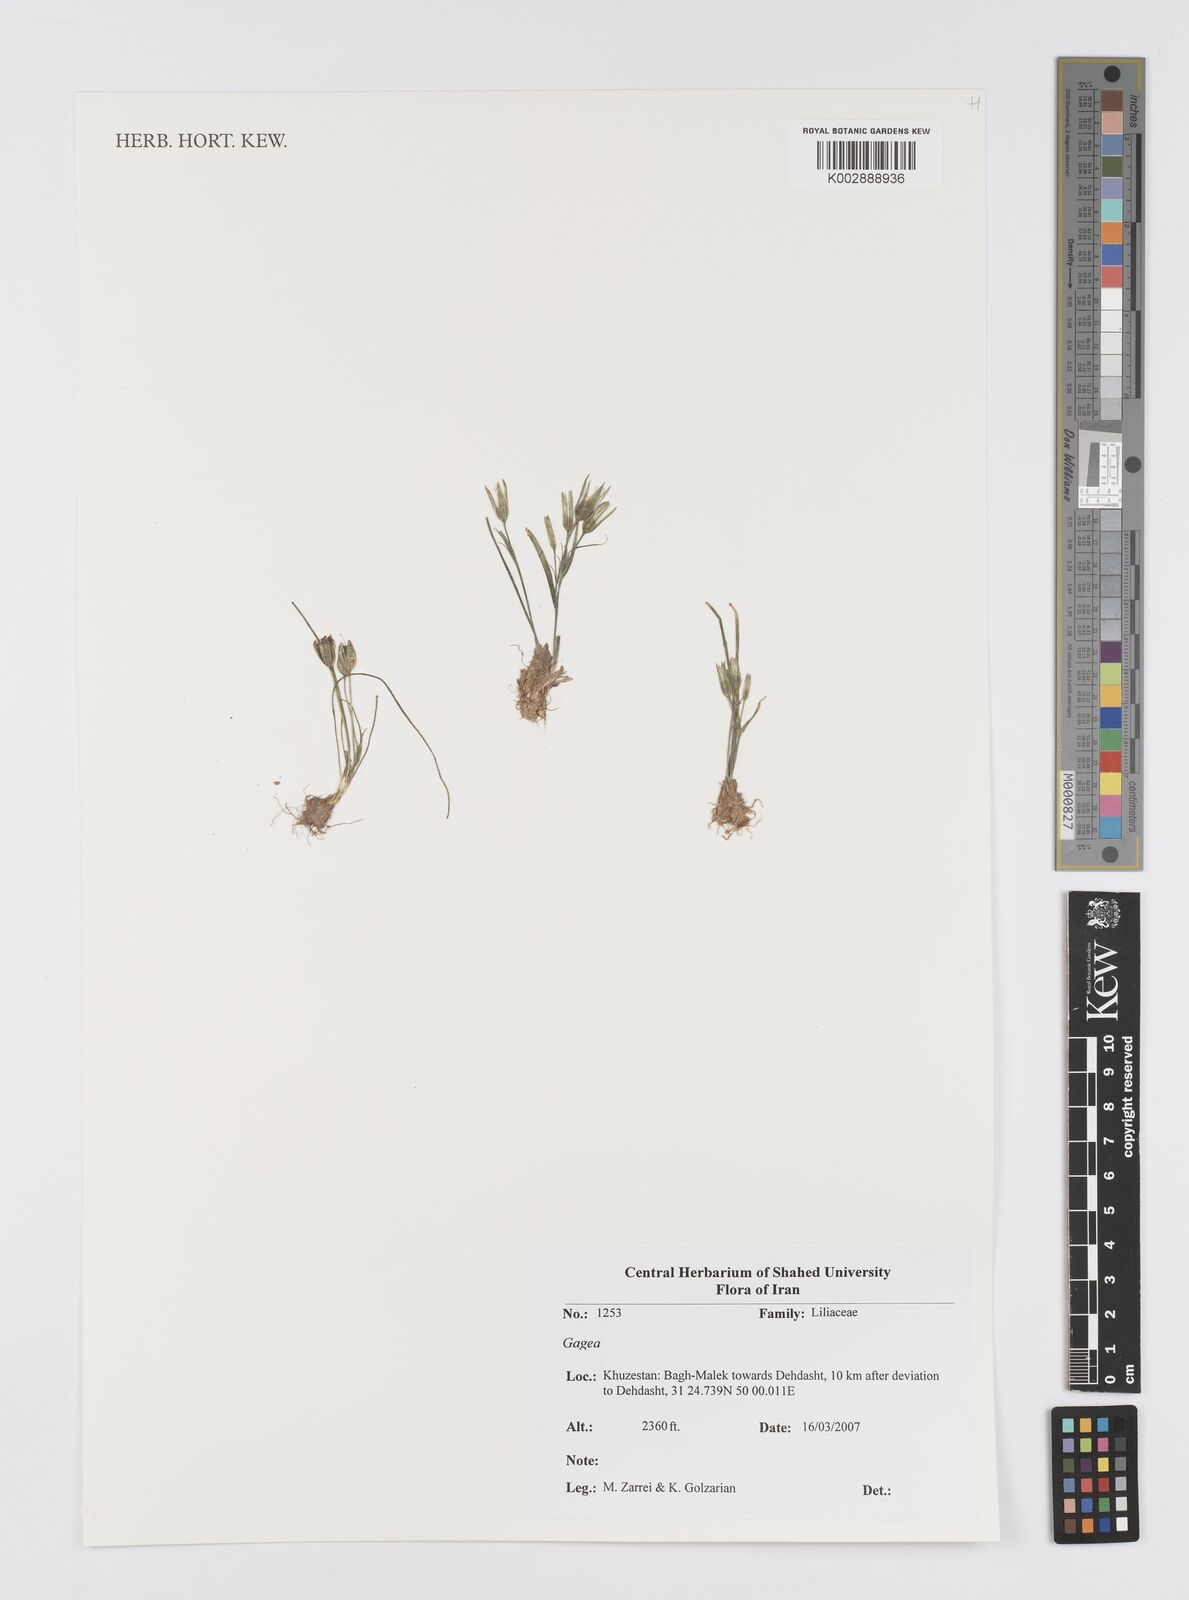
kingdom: Plantae
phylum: Tracheophyta
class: Liliopsida
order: Liliales
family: Liliaceae
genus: Gagea
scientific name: Gagea
